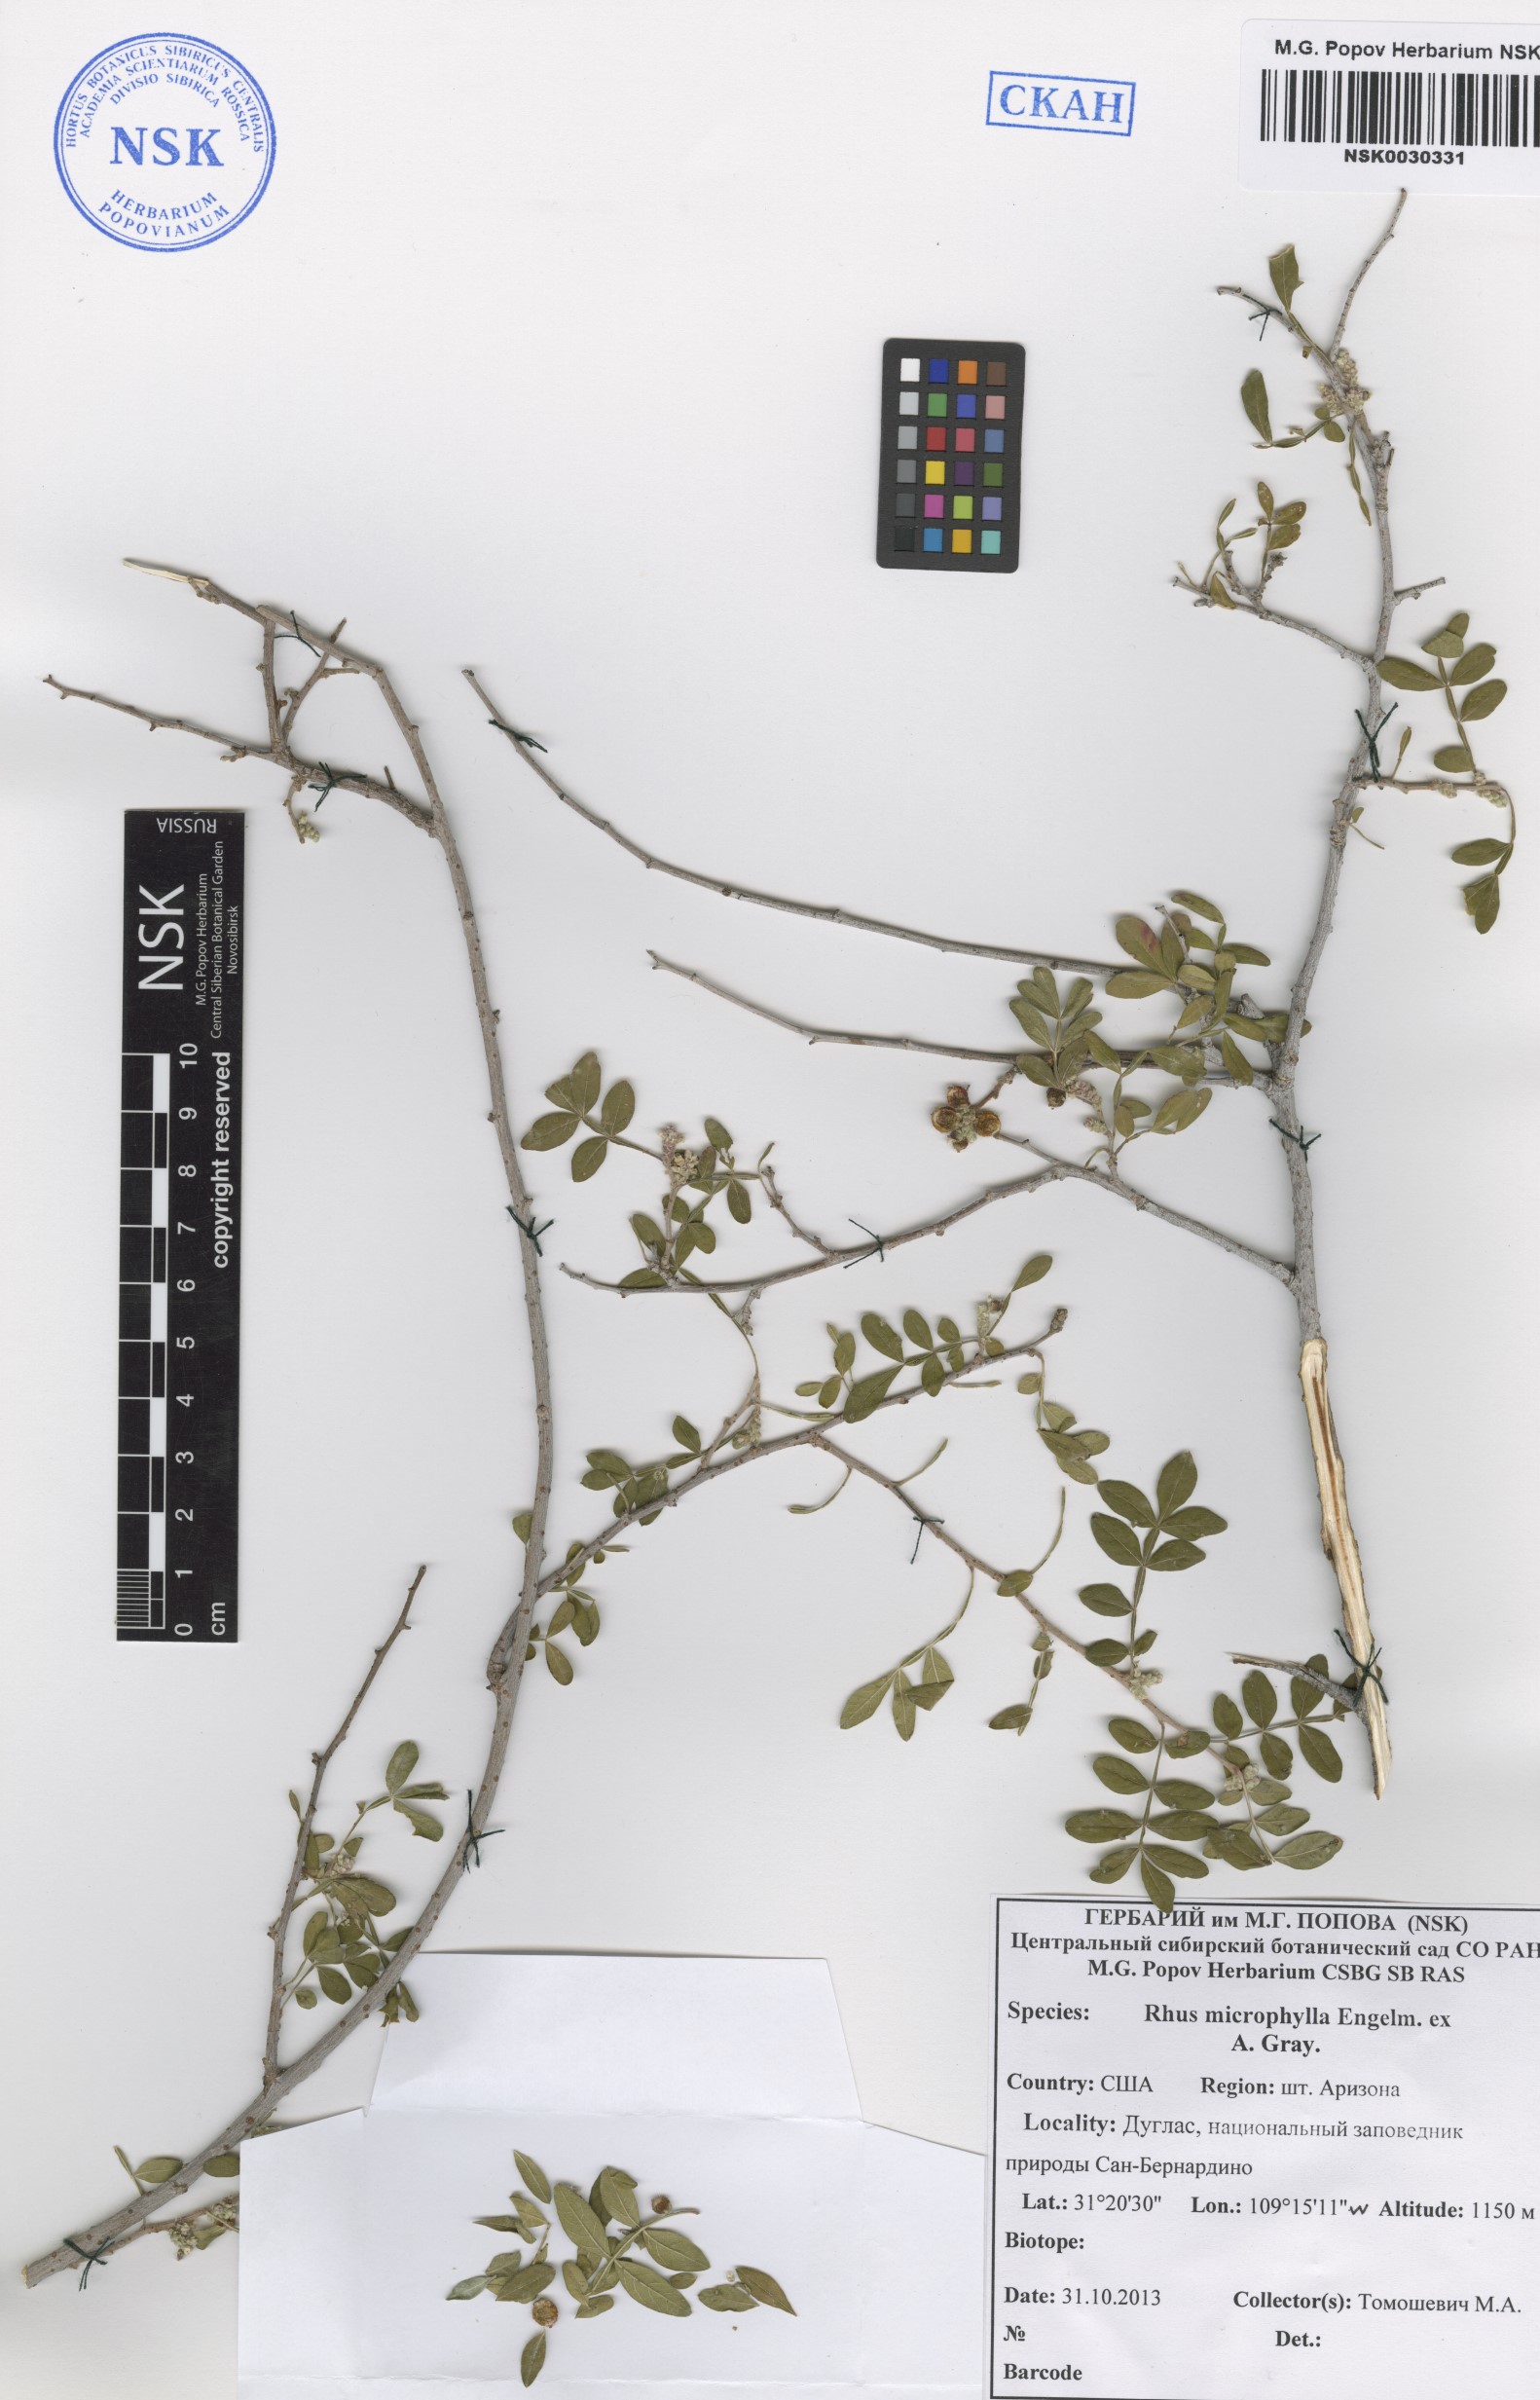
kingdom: Plantae
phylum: Tracheophyta
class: Magnoliopsida
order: Sapindales
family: Anacardiaceae
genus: Rhus
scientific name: Rhus microphylla
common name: Desert sumac
